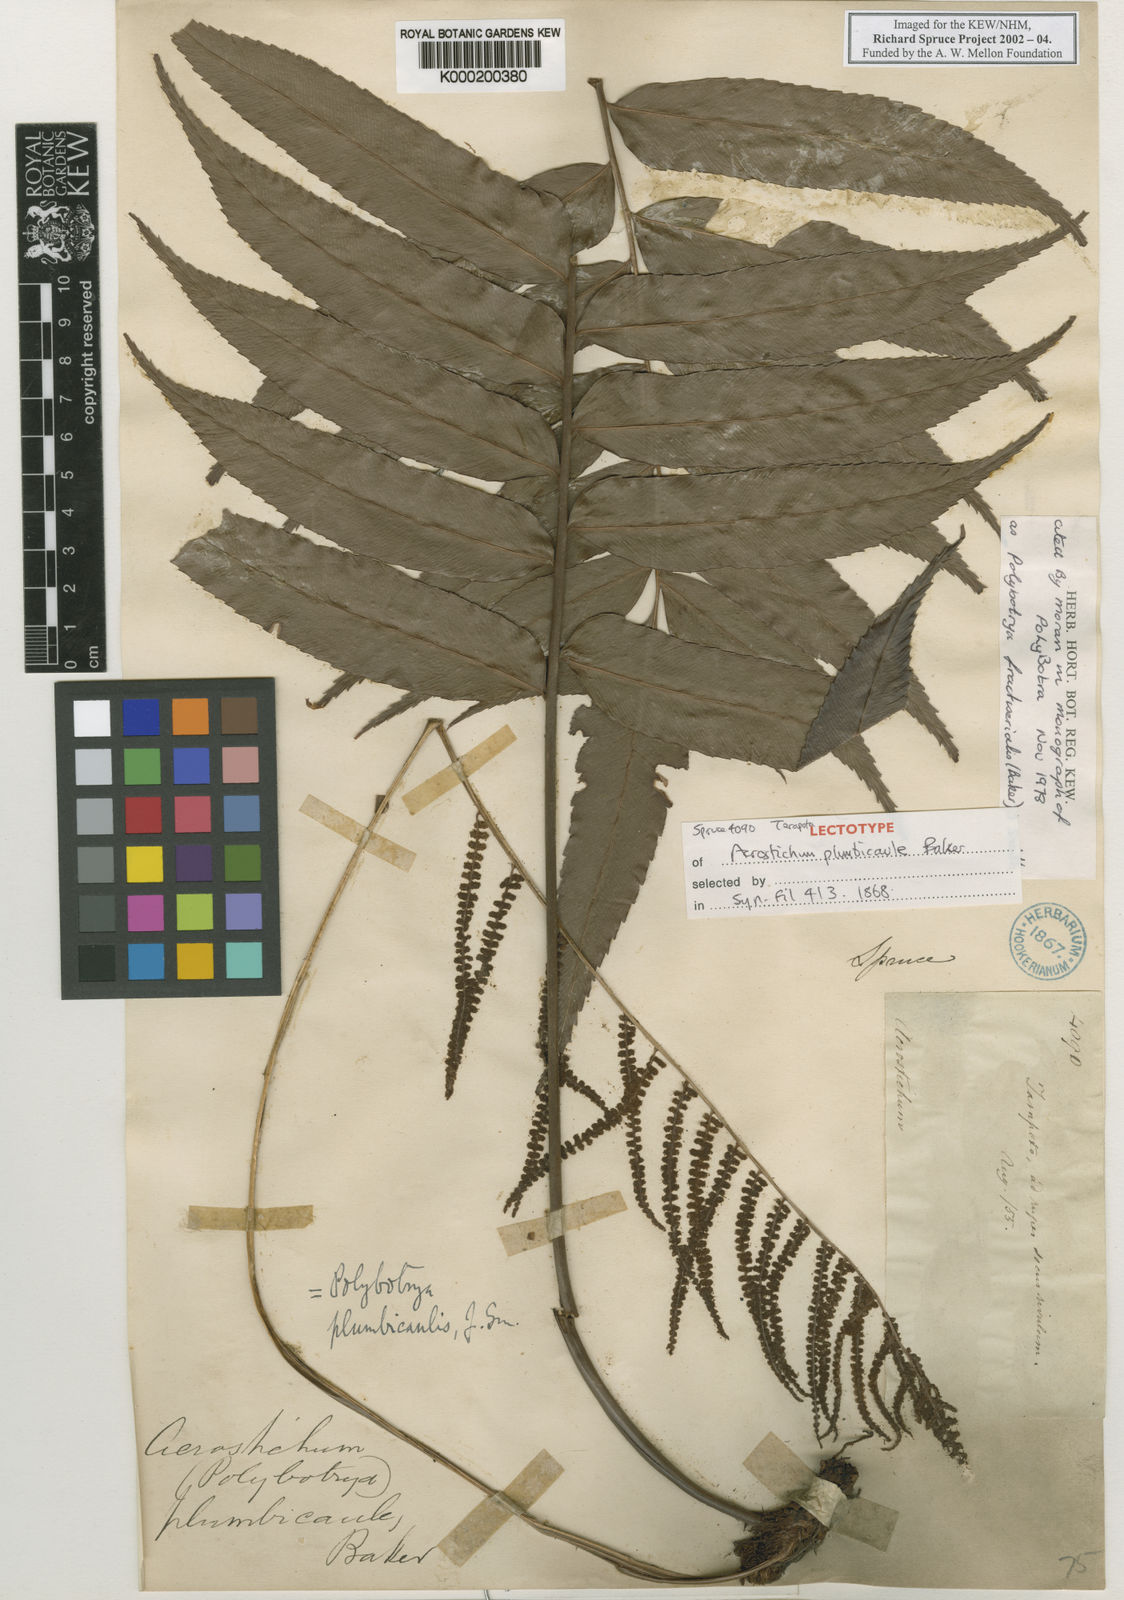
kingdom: Plantae
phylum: Tracheophyta
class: Polypodiopsida
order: Polypodiales
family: Dryopteridaceae
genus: Polybotrya
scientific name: Polybotrya fractiserialis
